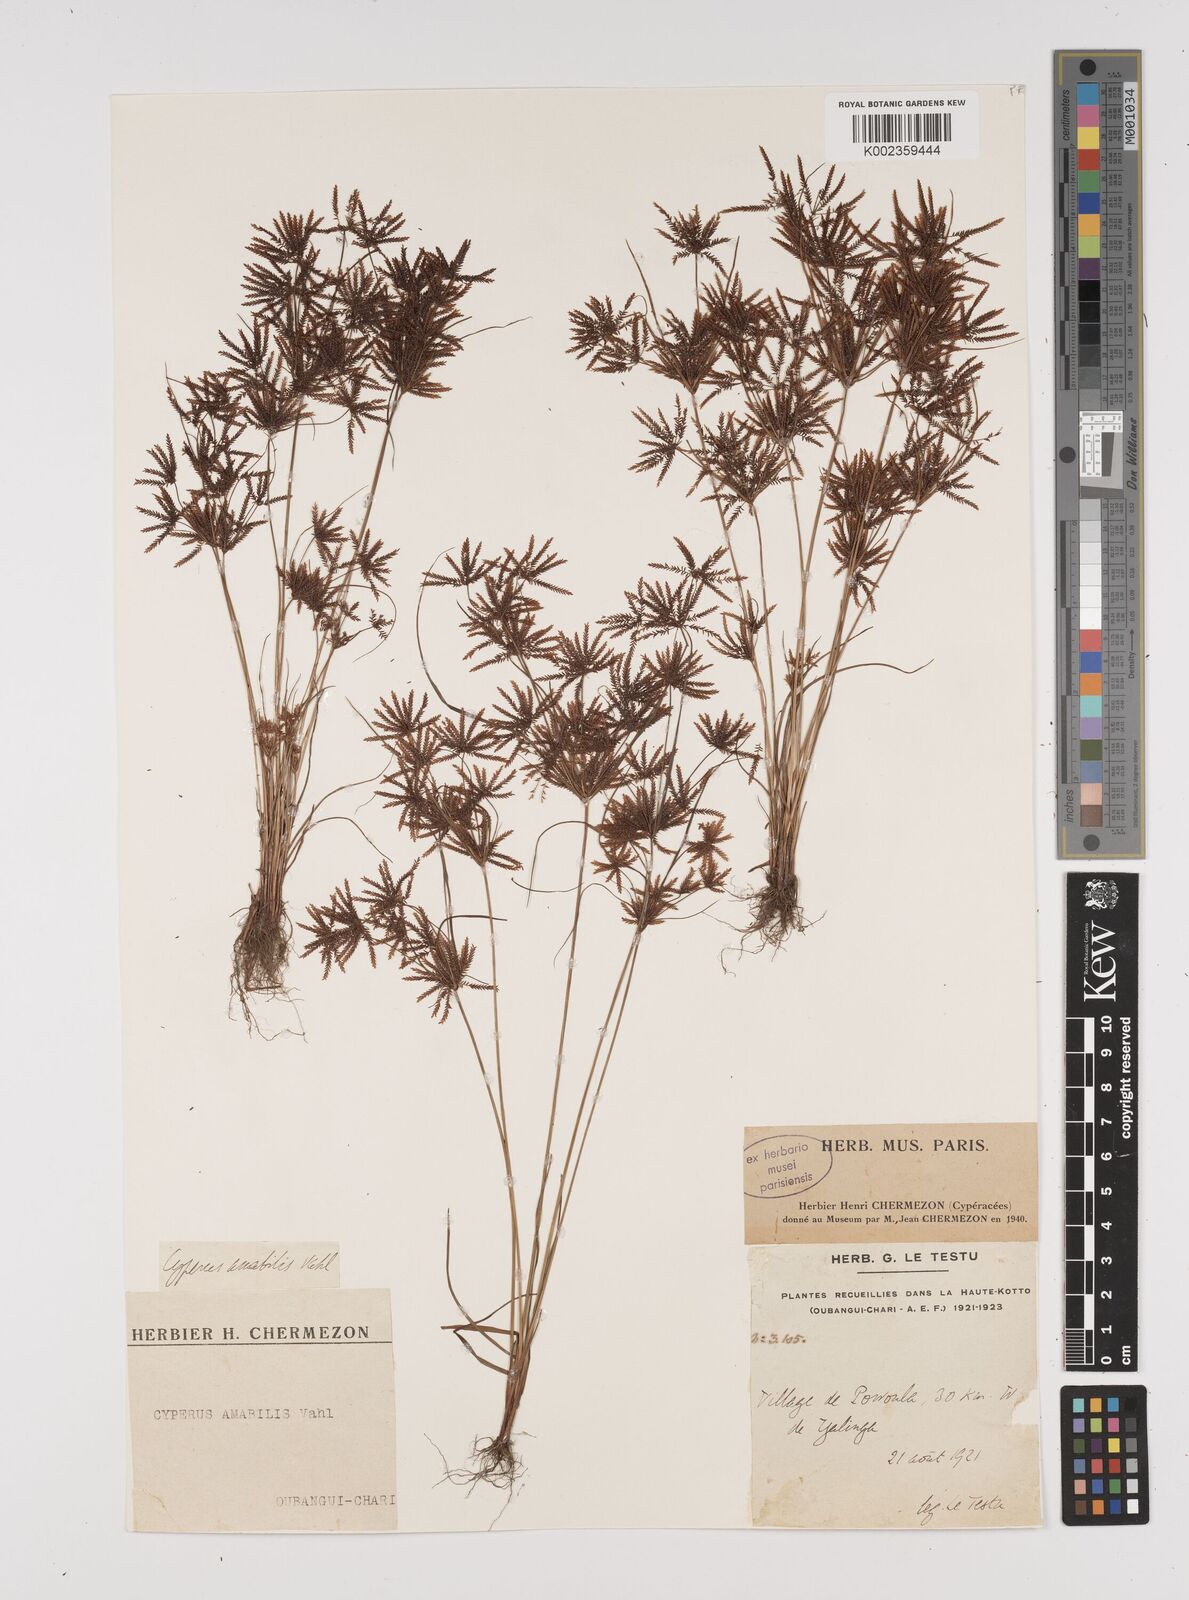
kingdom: Plantae
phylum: Tracheophyta
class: Liliopsida
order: Poales
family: Cyperaceae
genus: Cyperus
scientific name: Cyperus amabilis
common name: Foothill flat sedge
